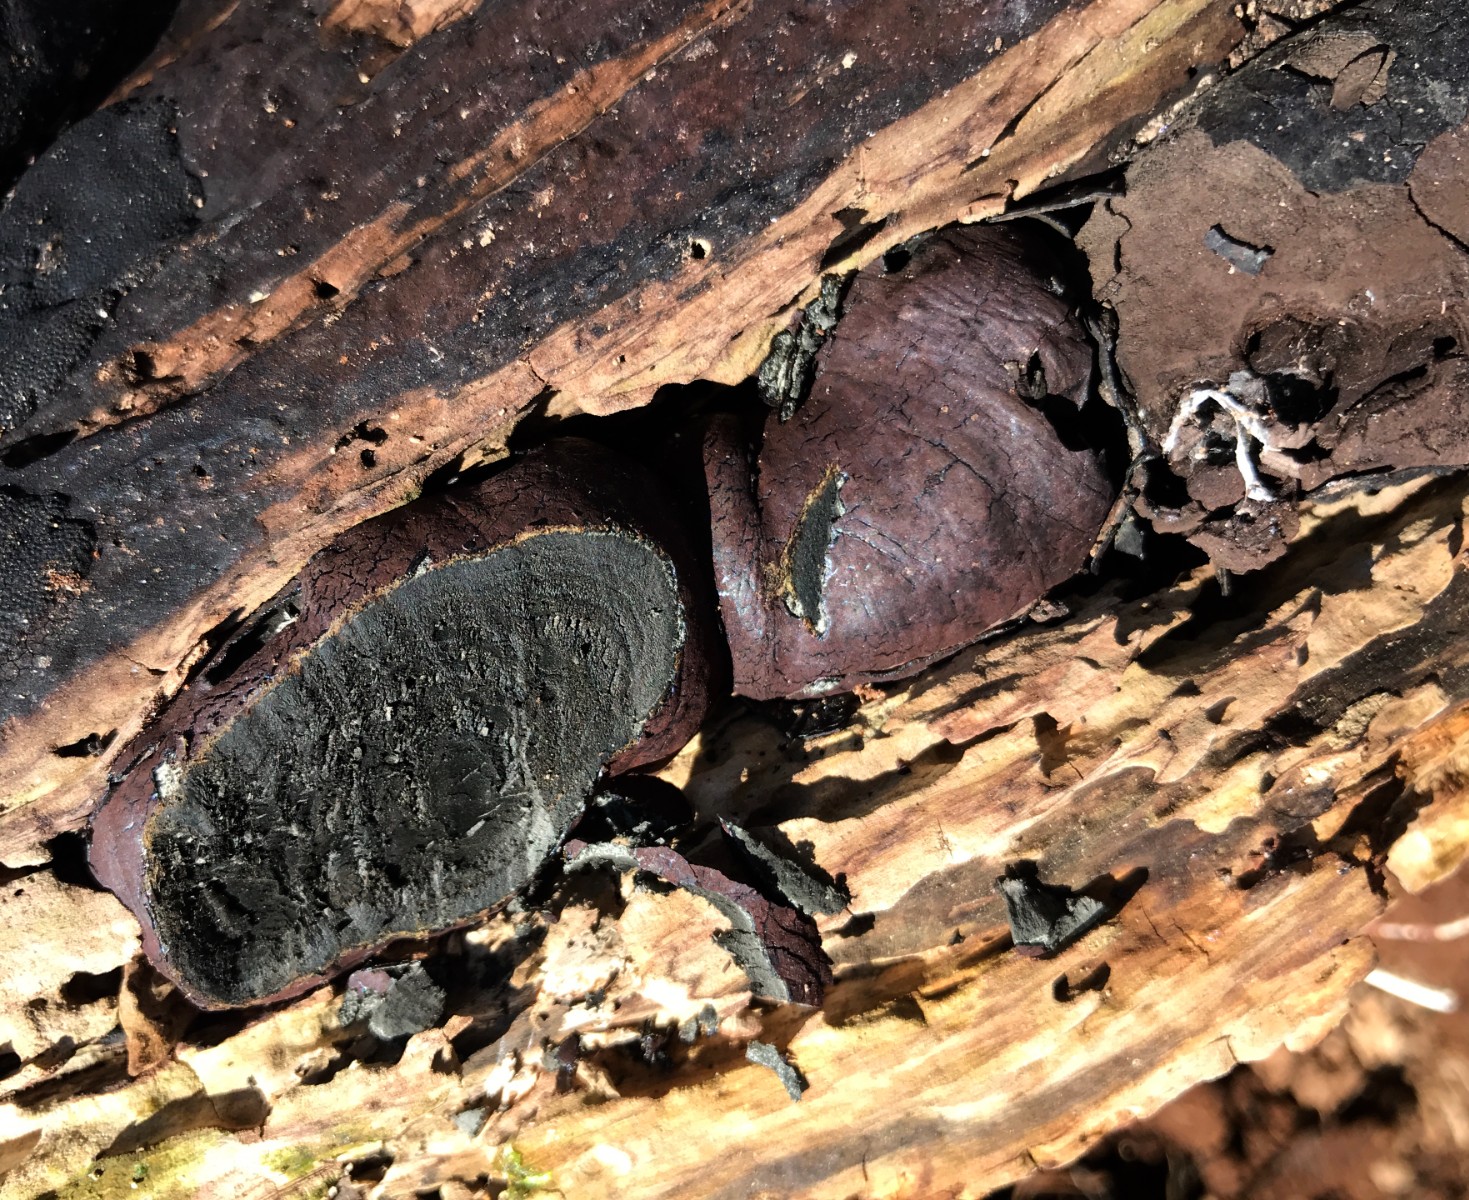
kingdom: Fungi
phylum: Ascomycota
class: Sordariomycetes
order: Xylariales
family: Hypoxylaceae
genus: Daldinia
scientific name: Daldinia concentrica
